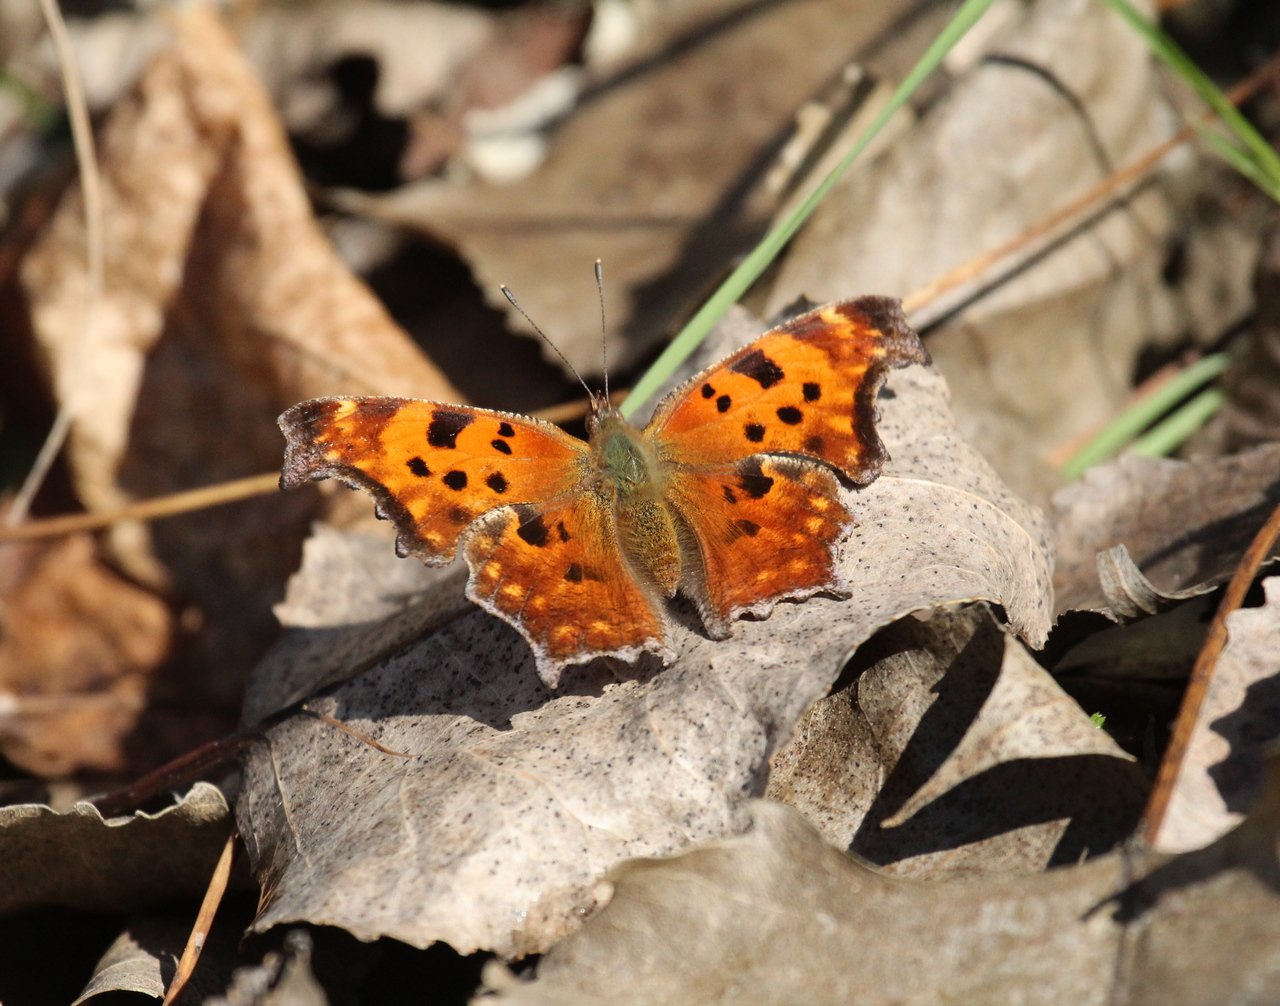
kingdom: Animalia
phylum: Arthropoda
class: Insecta
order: Lepidoptera
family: Nymphalidae
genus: Polygonia
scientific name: Polygonia comma
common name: Eastern Comma
